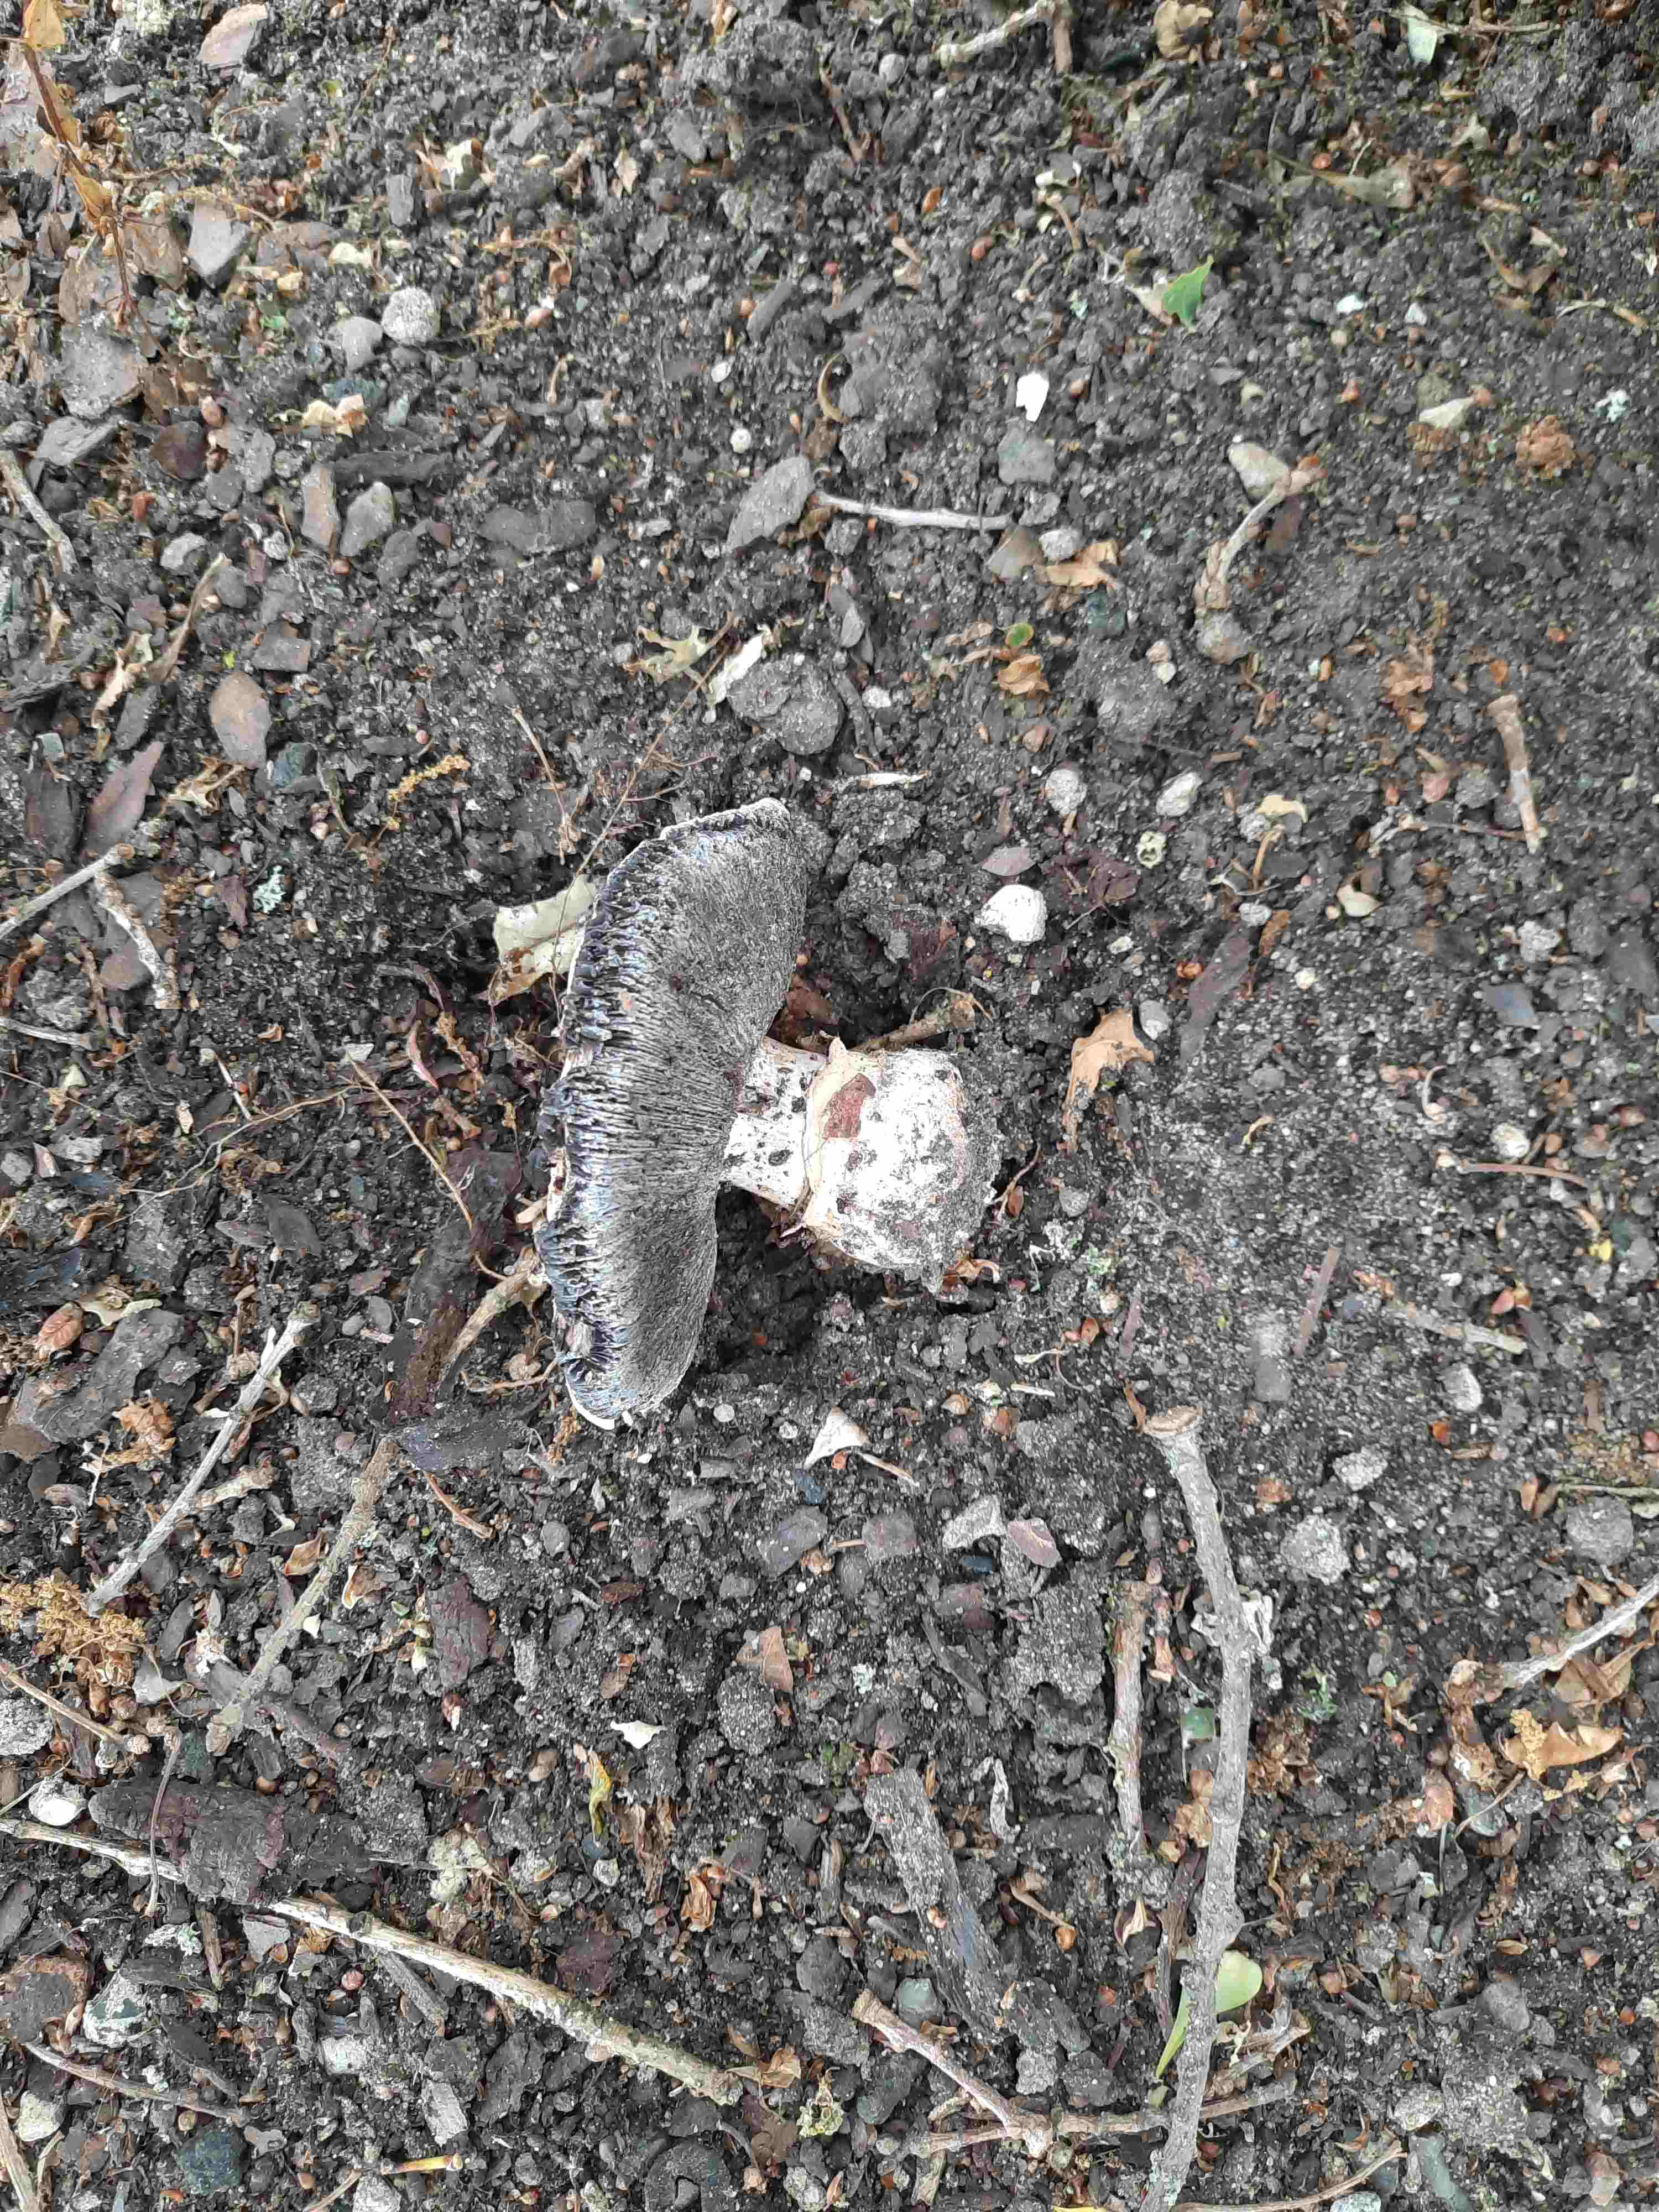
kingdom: Fungi
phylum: Basidiomycota
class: Agaricomycetes
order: Agaricales
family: Agaricaceae
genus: Agaricus
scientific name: Agaricus bitorquis
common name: vej-champignon
